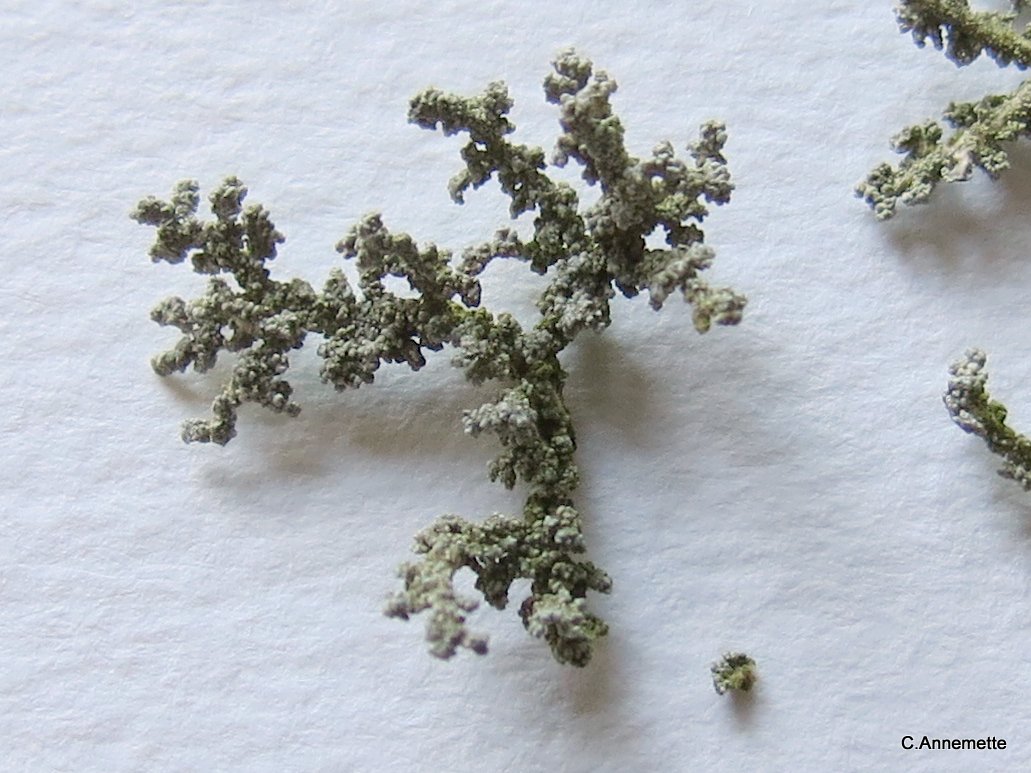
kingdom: Fungi
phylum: Ascomycota
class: Lecanoromycetes
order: Lecanorales
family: Stereocaulaceae
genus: Stereocaulon
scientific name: Stereocaulon
